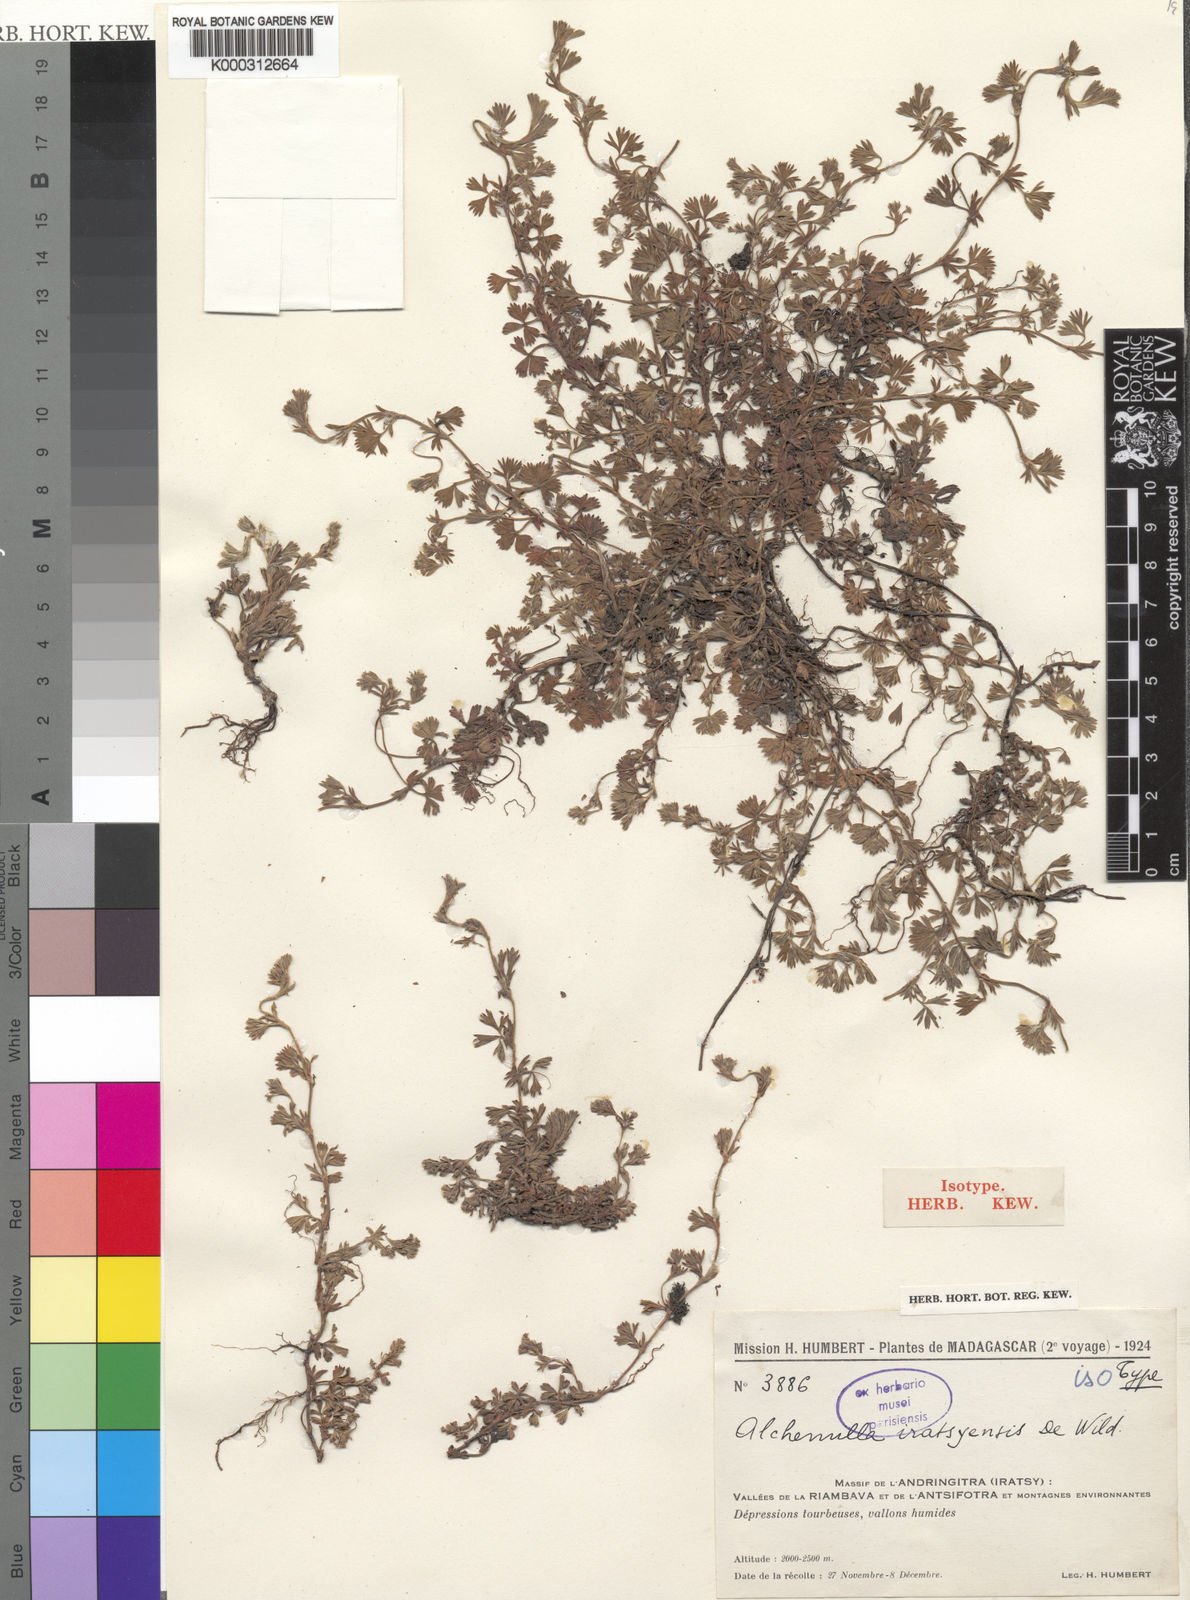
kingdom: Plantae
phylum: Tracheophyta
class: Magnoliopsida
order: Rosales
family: Rosaceae
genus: Alchemilla
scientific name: Alchemilla
